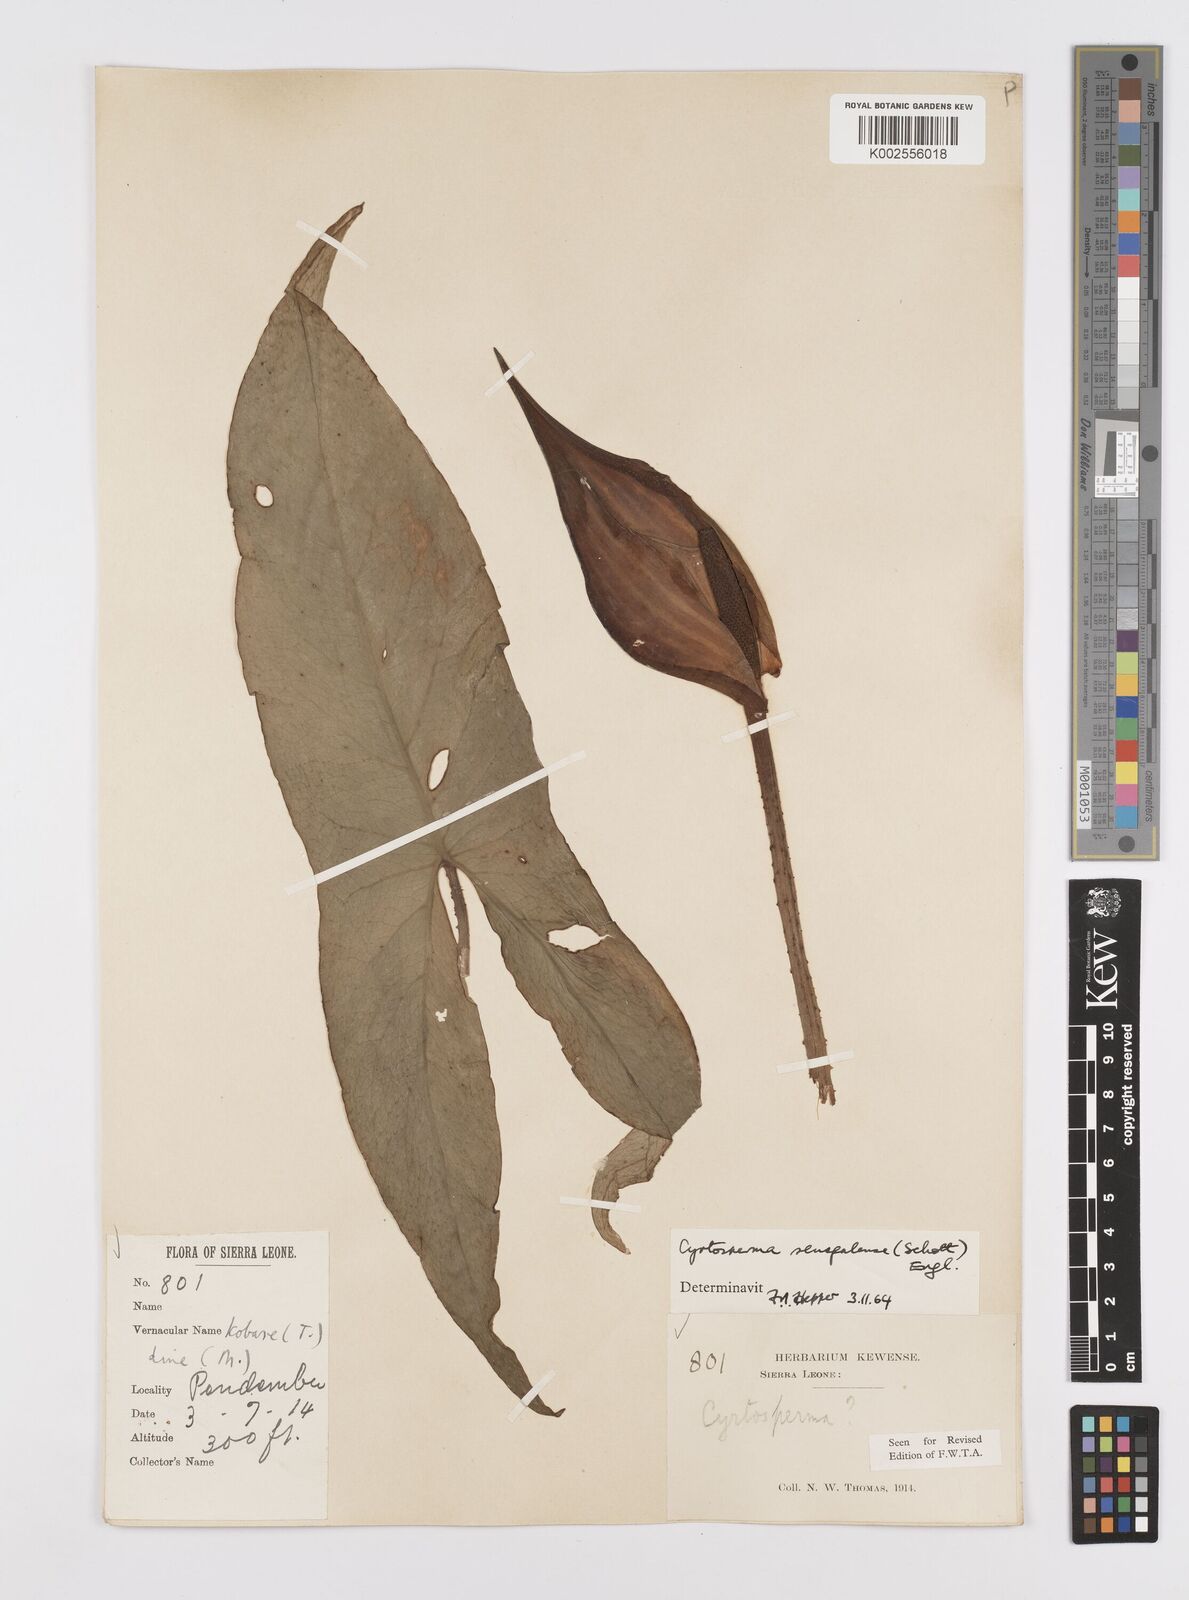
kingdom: Plantae
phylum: Tracheophyta
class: Liliopsida
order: Alismatales
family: Araceae
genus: Lasimorpha
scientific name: Lasimorpha senegalensis
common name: Swamp arum
